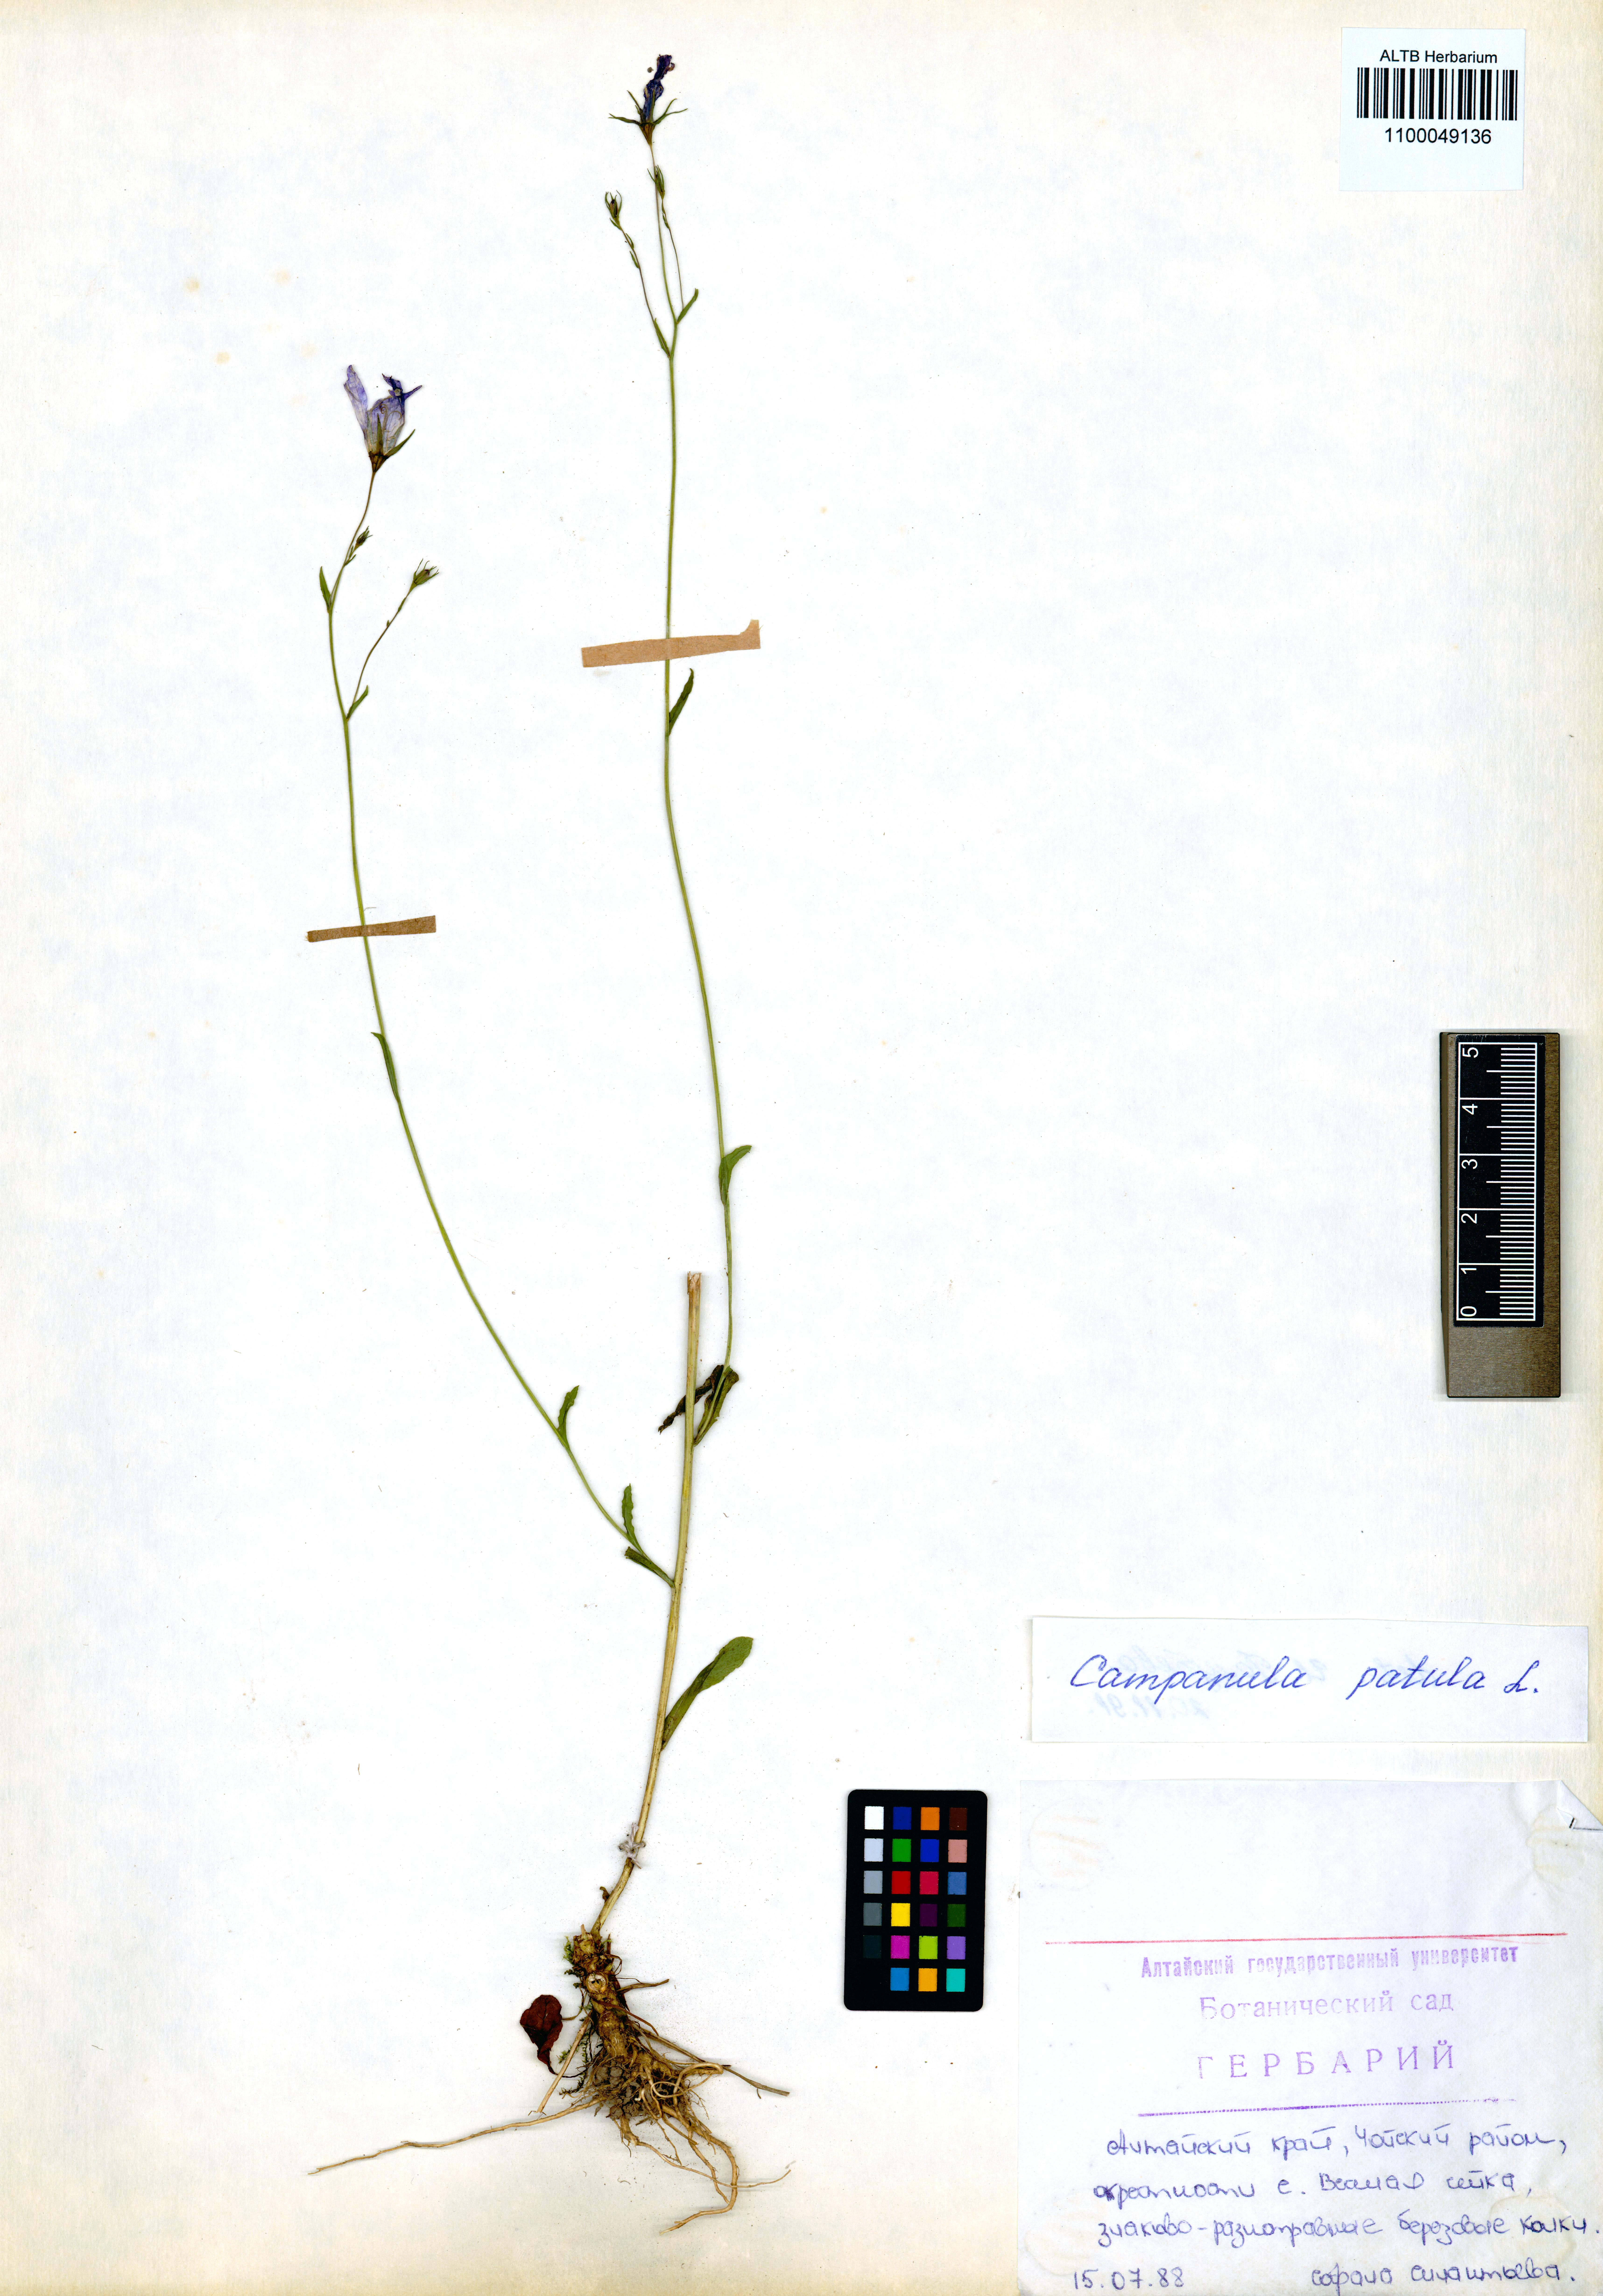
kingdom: Plantae
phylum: Tracheophyta
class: Magnoliopsida
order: Asterales
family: Campanulaceae
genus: Campanula
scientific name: Campanula patula
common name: Spreading bellflower
